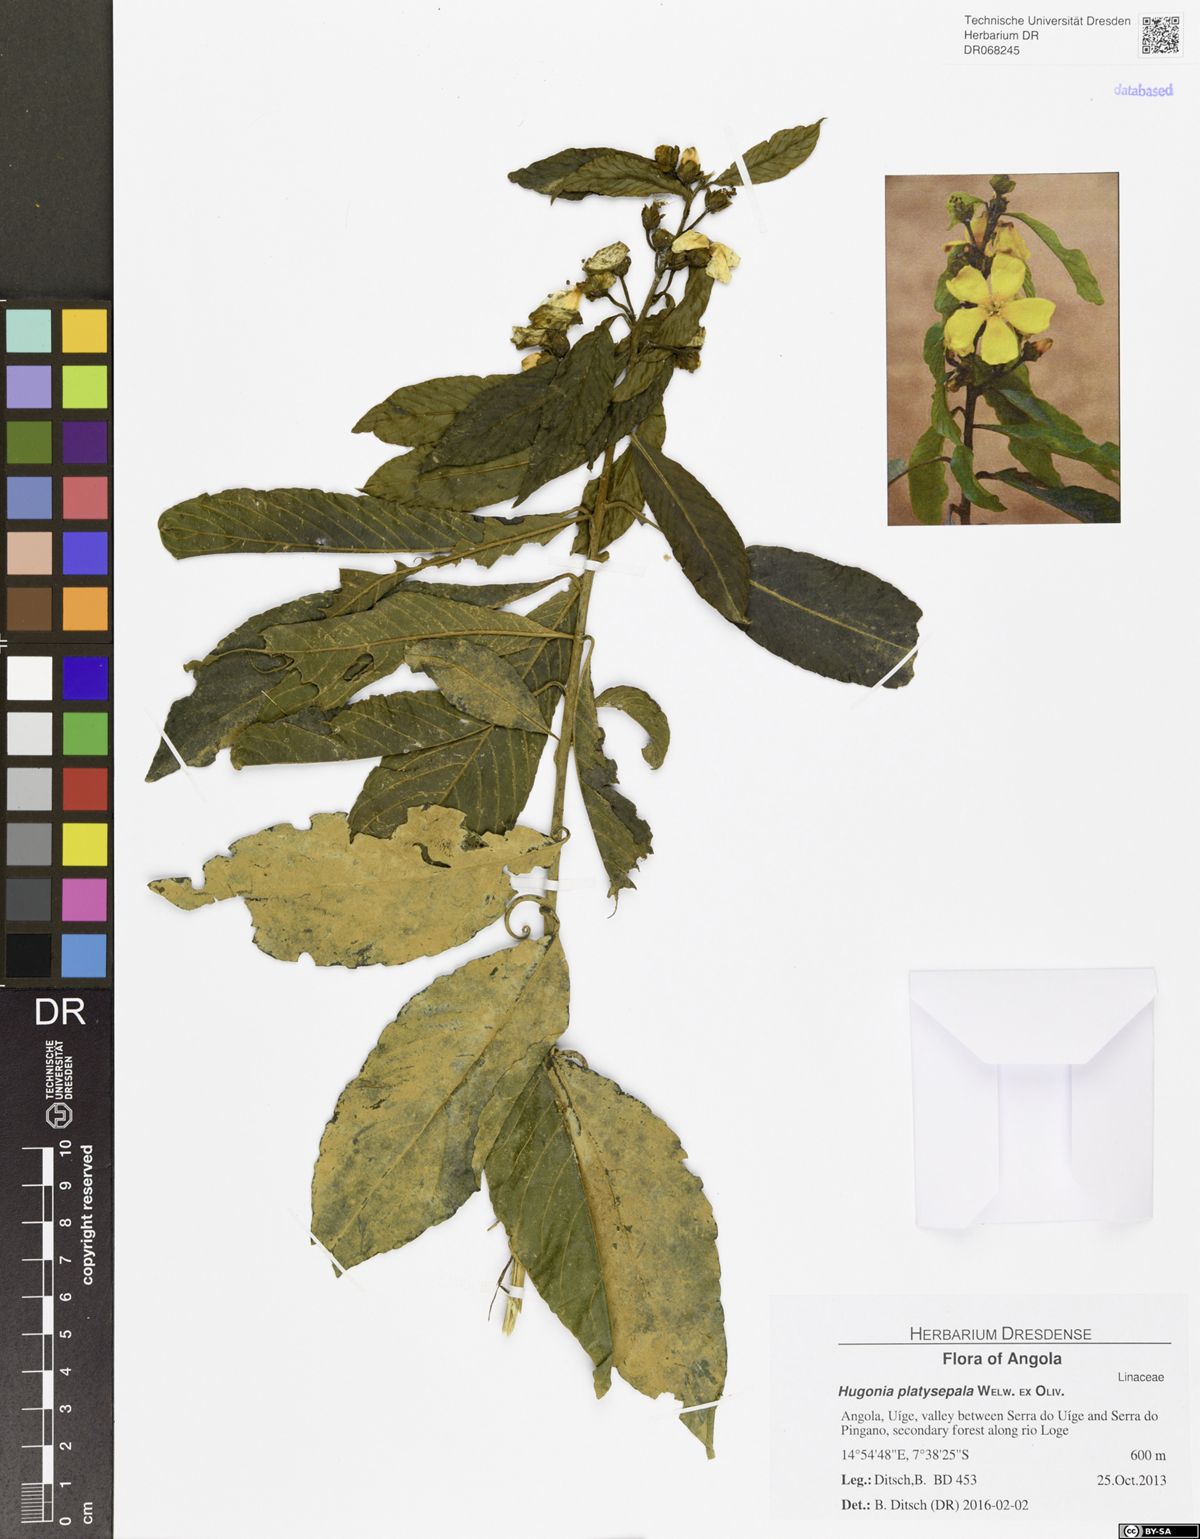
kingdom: Plantae
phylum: Tracheophyta
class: Magnoliopsida
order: Malpighiales
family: Linaceae
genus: Hugonia
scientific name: Hugonia platysepala
